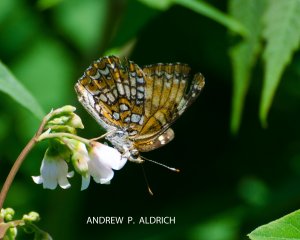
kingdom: Animalia
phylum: Arthropoda
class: Insecta
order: Lepidoptera
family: Nymphalidae
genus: Chlosyne
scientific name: Chlosyne harrisii
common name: Harris's Checkerspot
